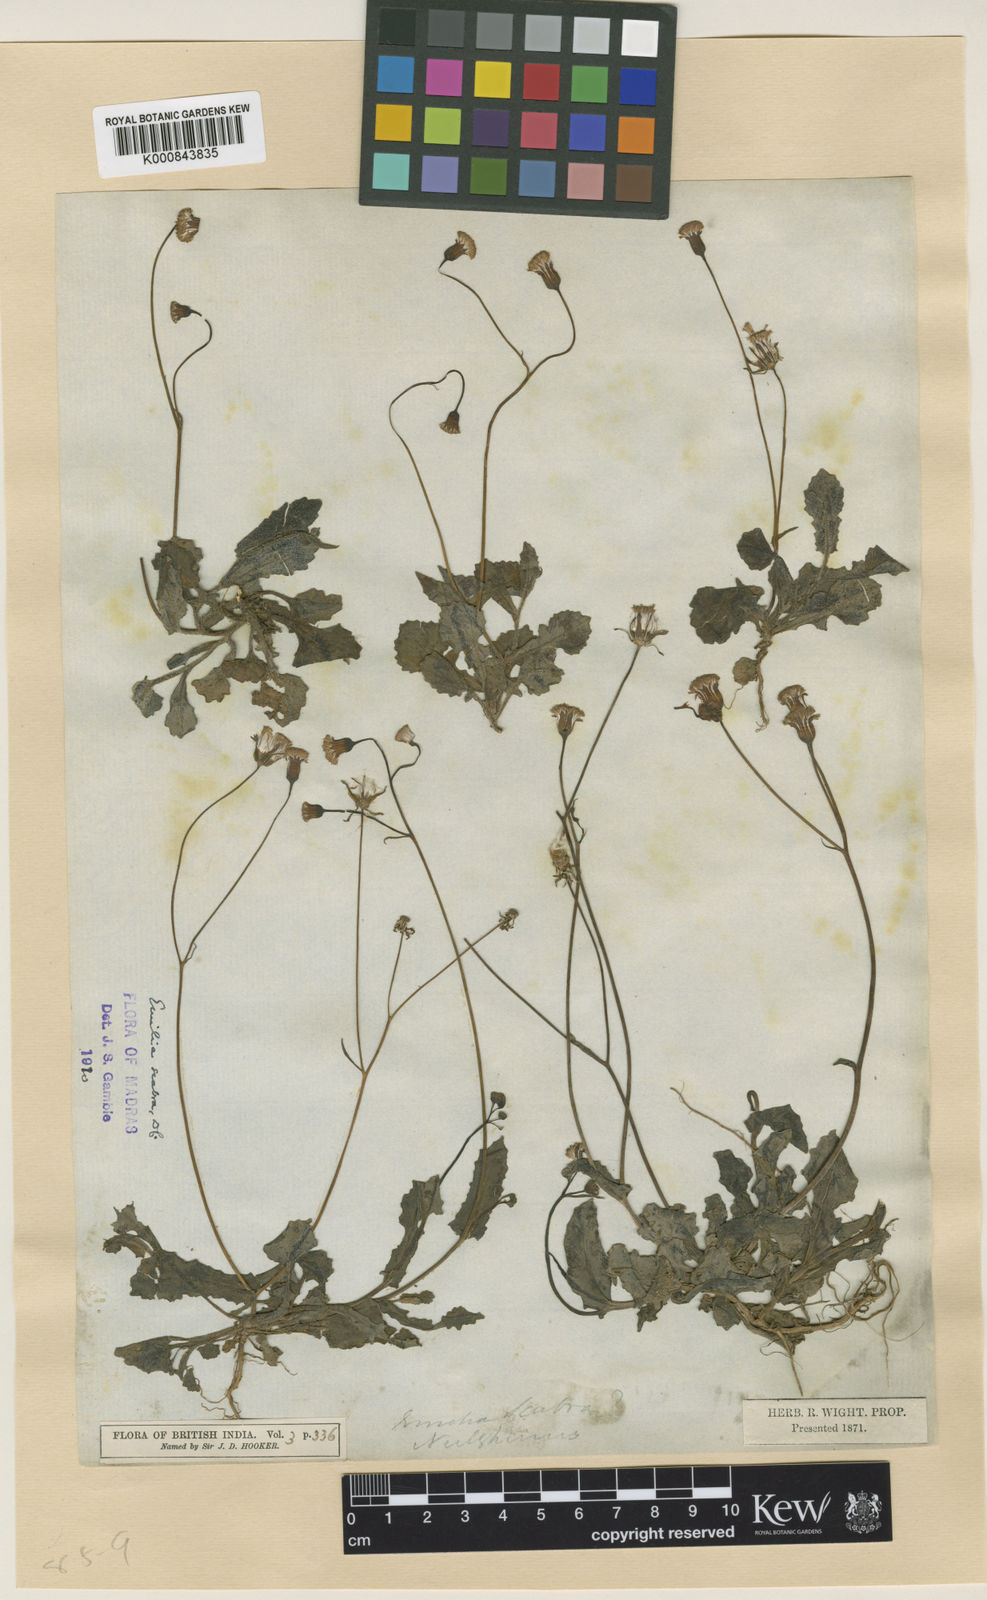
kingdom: Plantae
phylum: Tracheophyta
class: Magnoliopsida
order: Asterales
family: Asteraceae
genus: Emilia
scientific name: Emilia scabra
